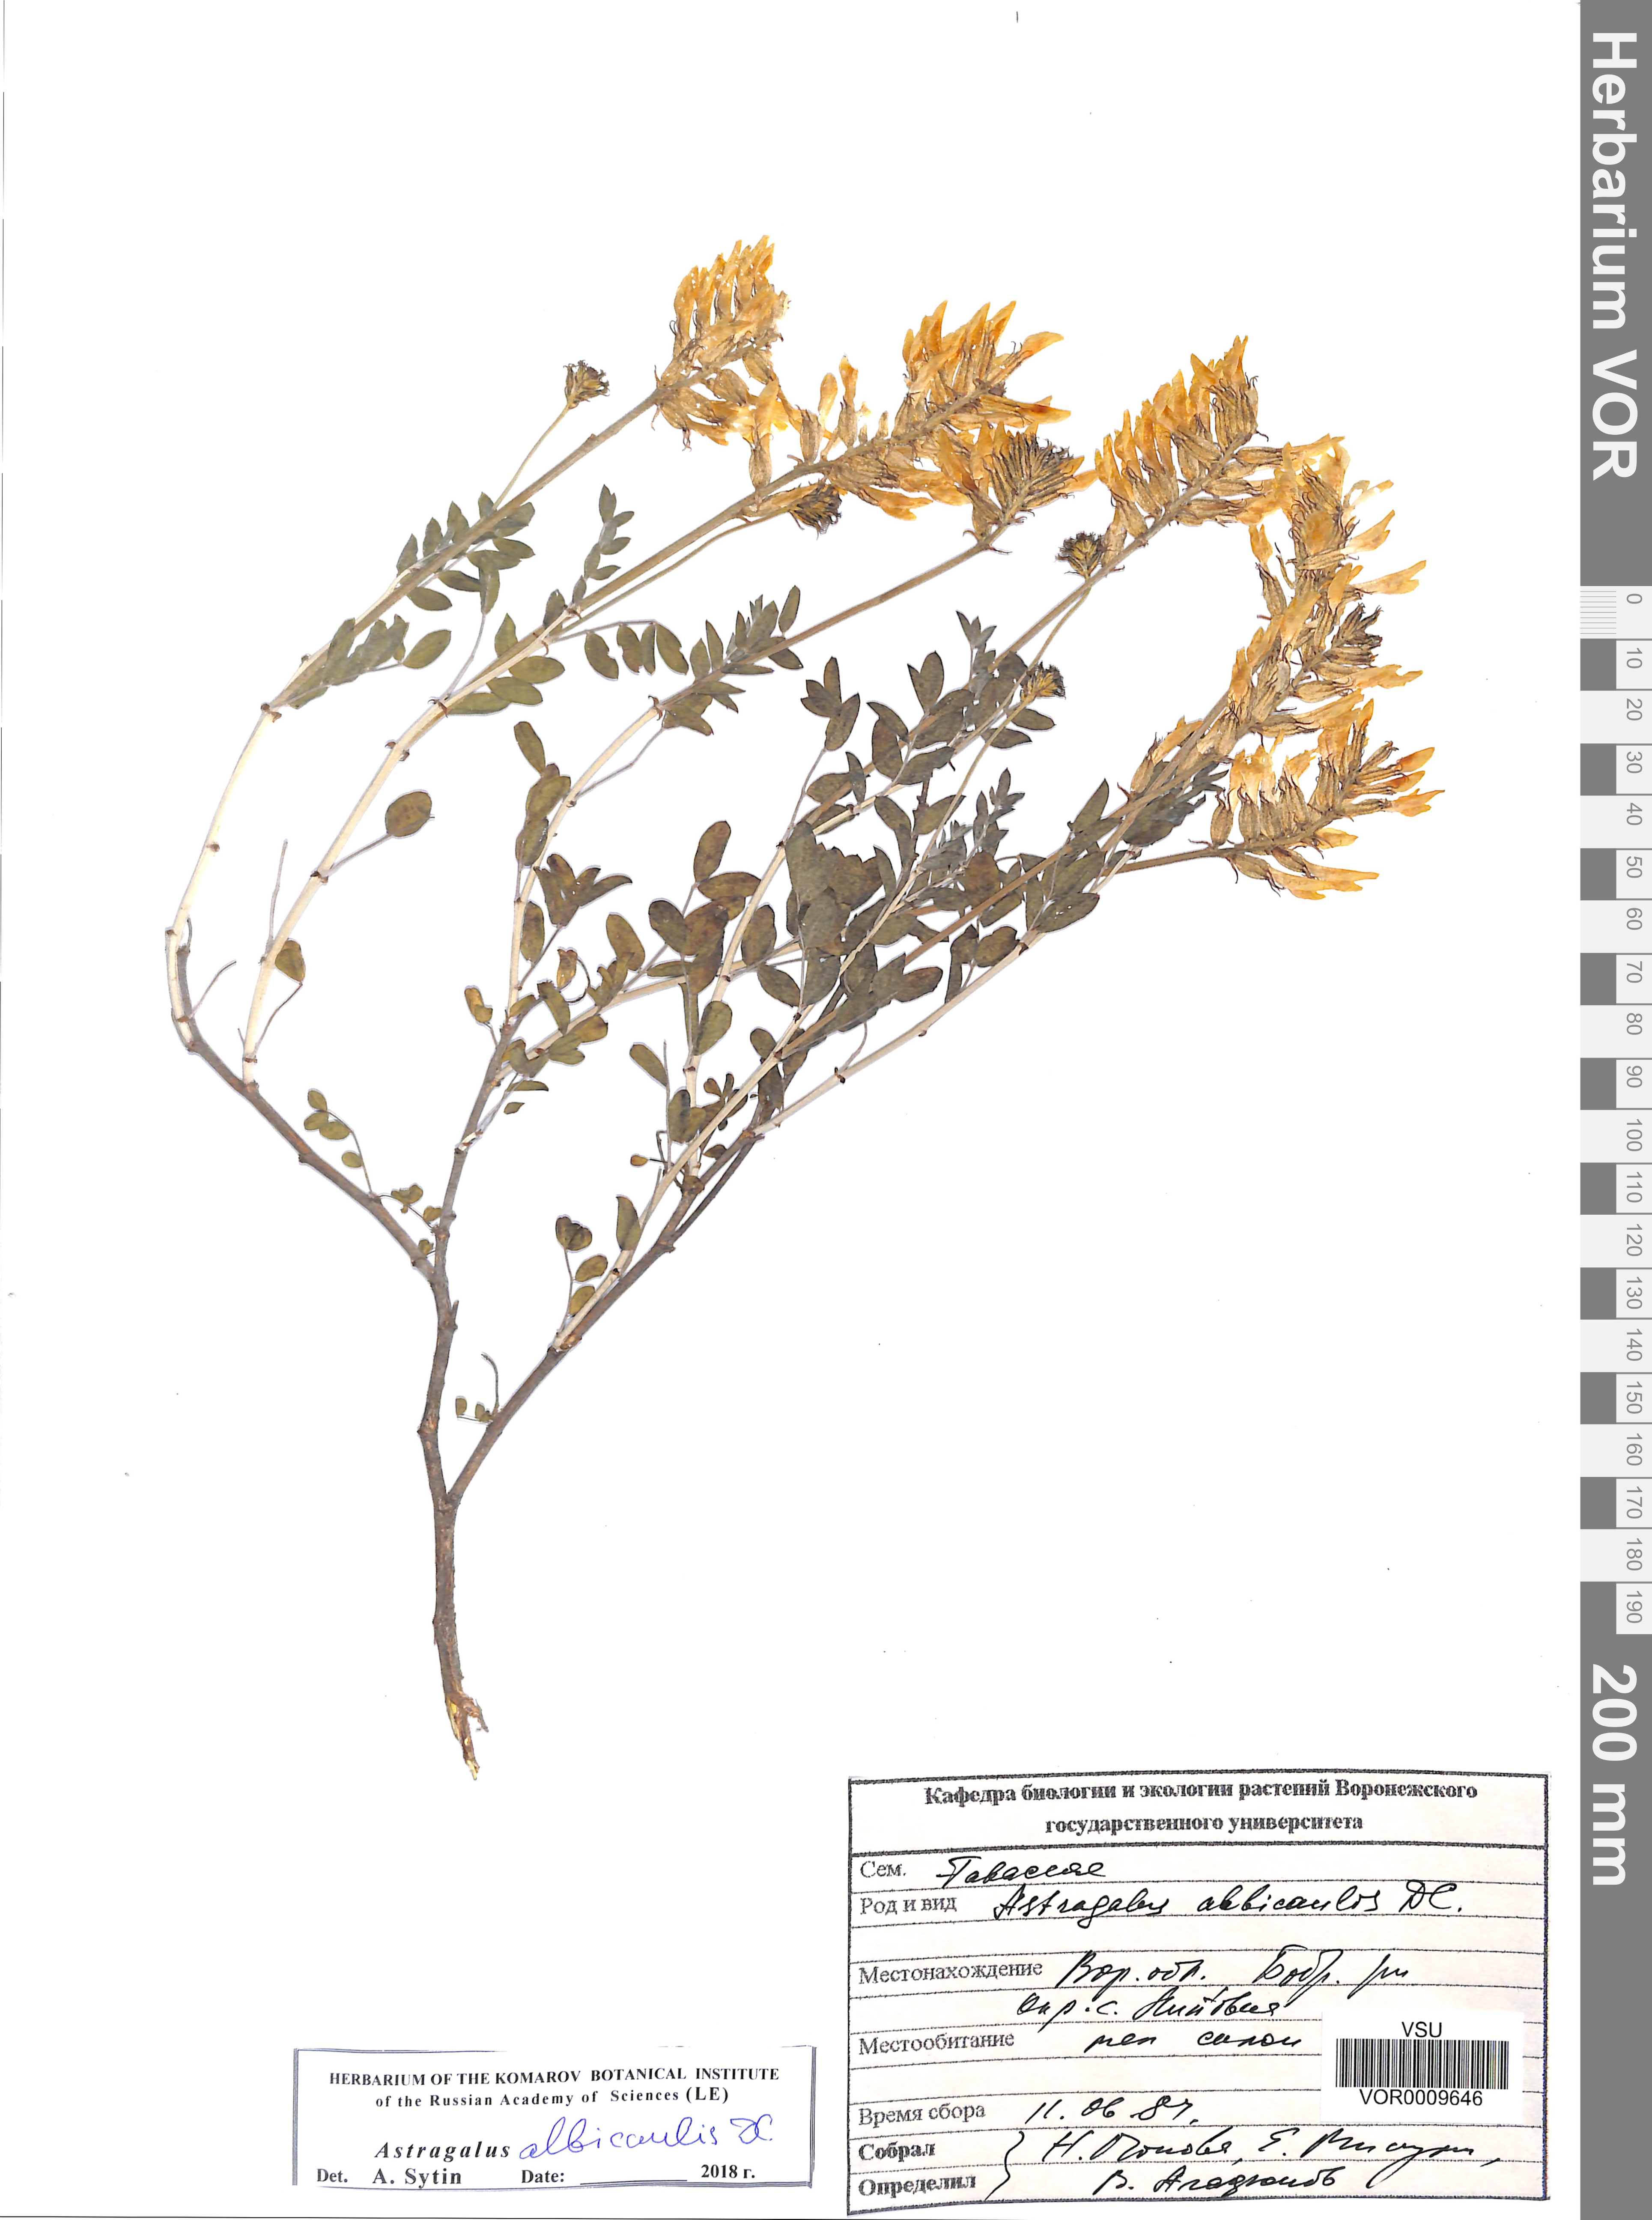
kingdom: Plantae
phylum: Tracheophyta
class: Magnoliopsida
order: Fabales
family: Fabaceae
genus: Astragalus
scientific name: Astragalus albicaulis
